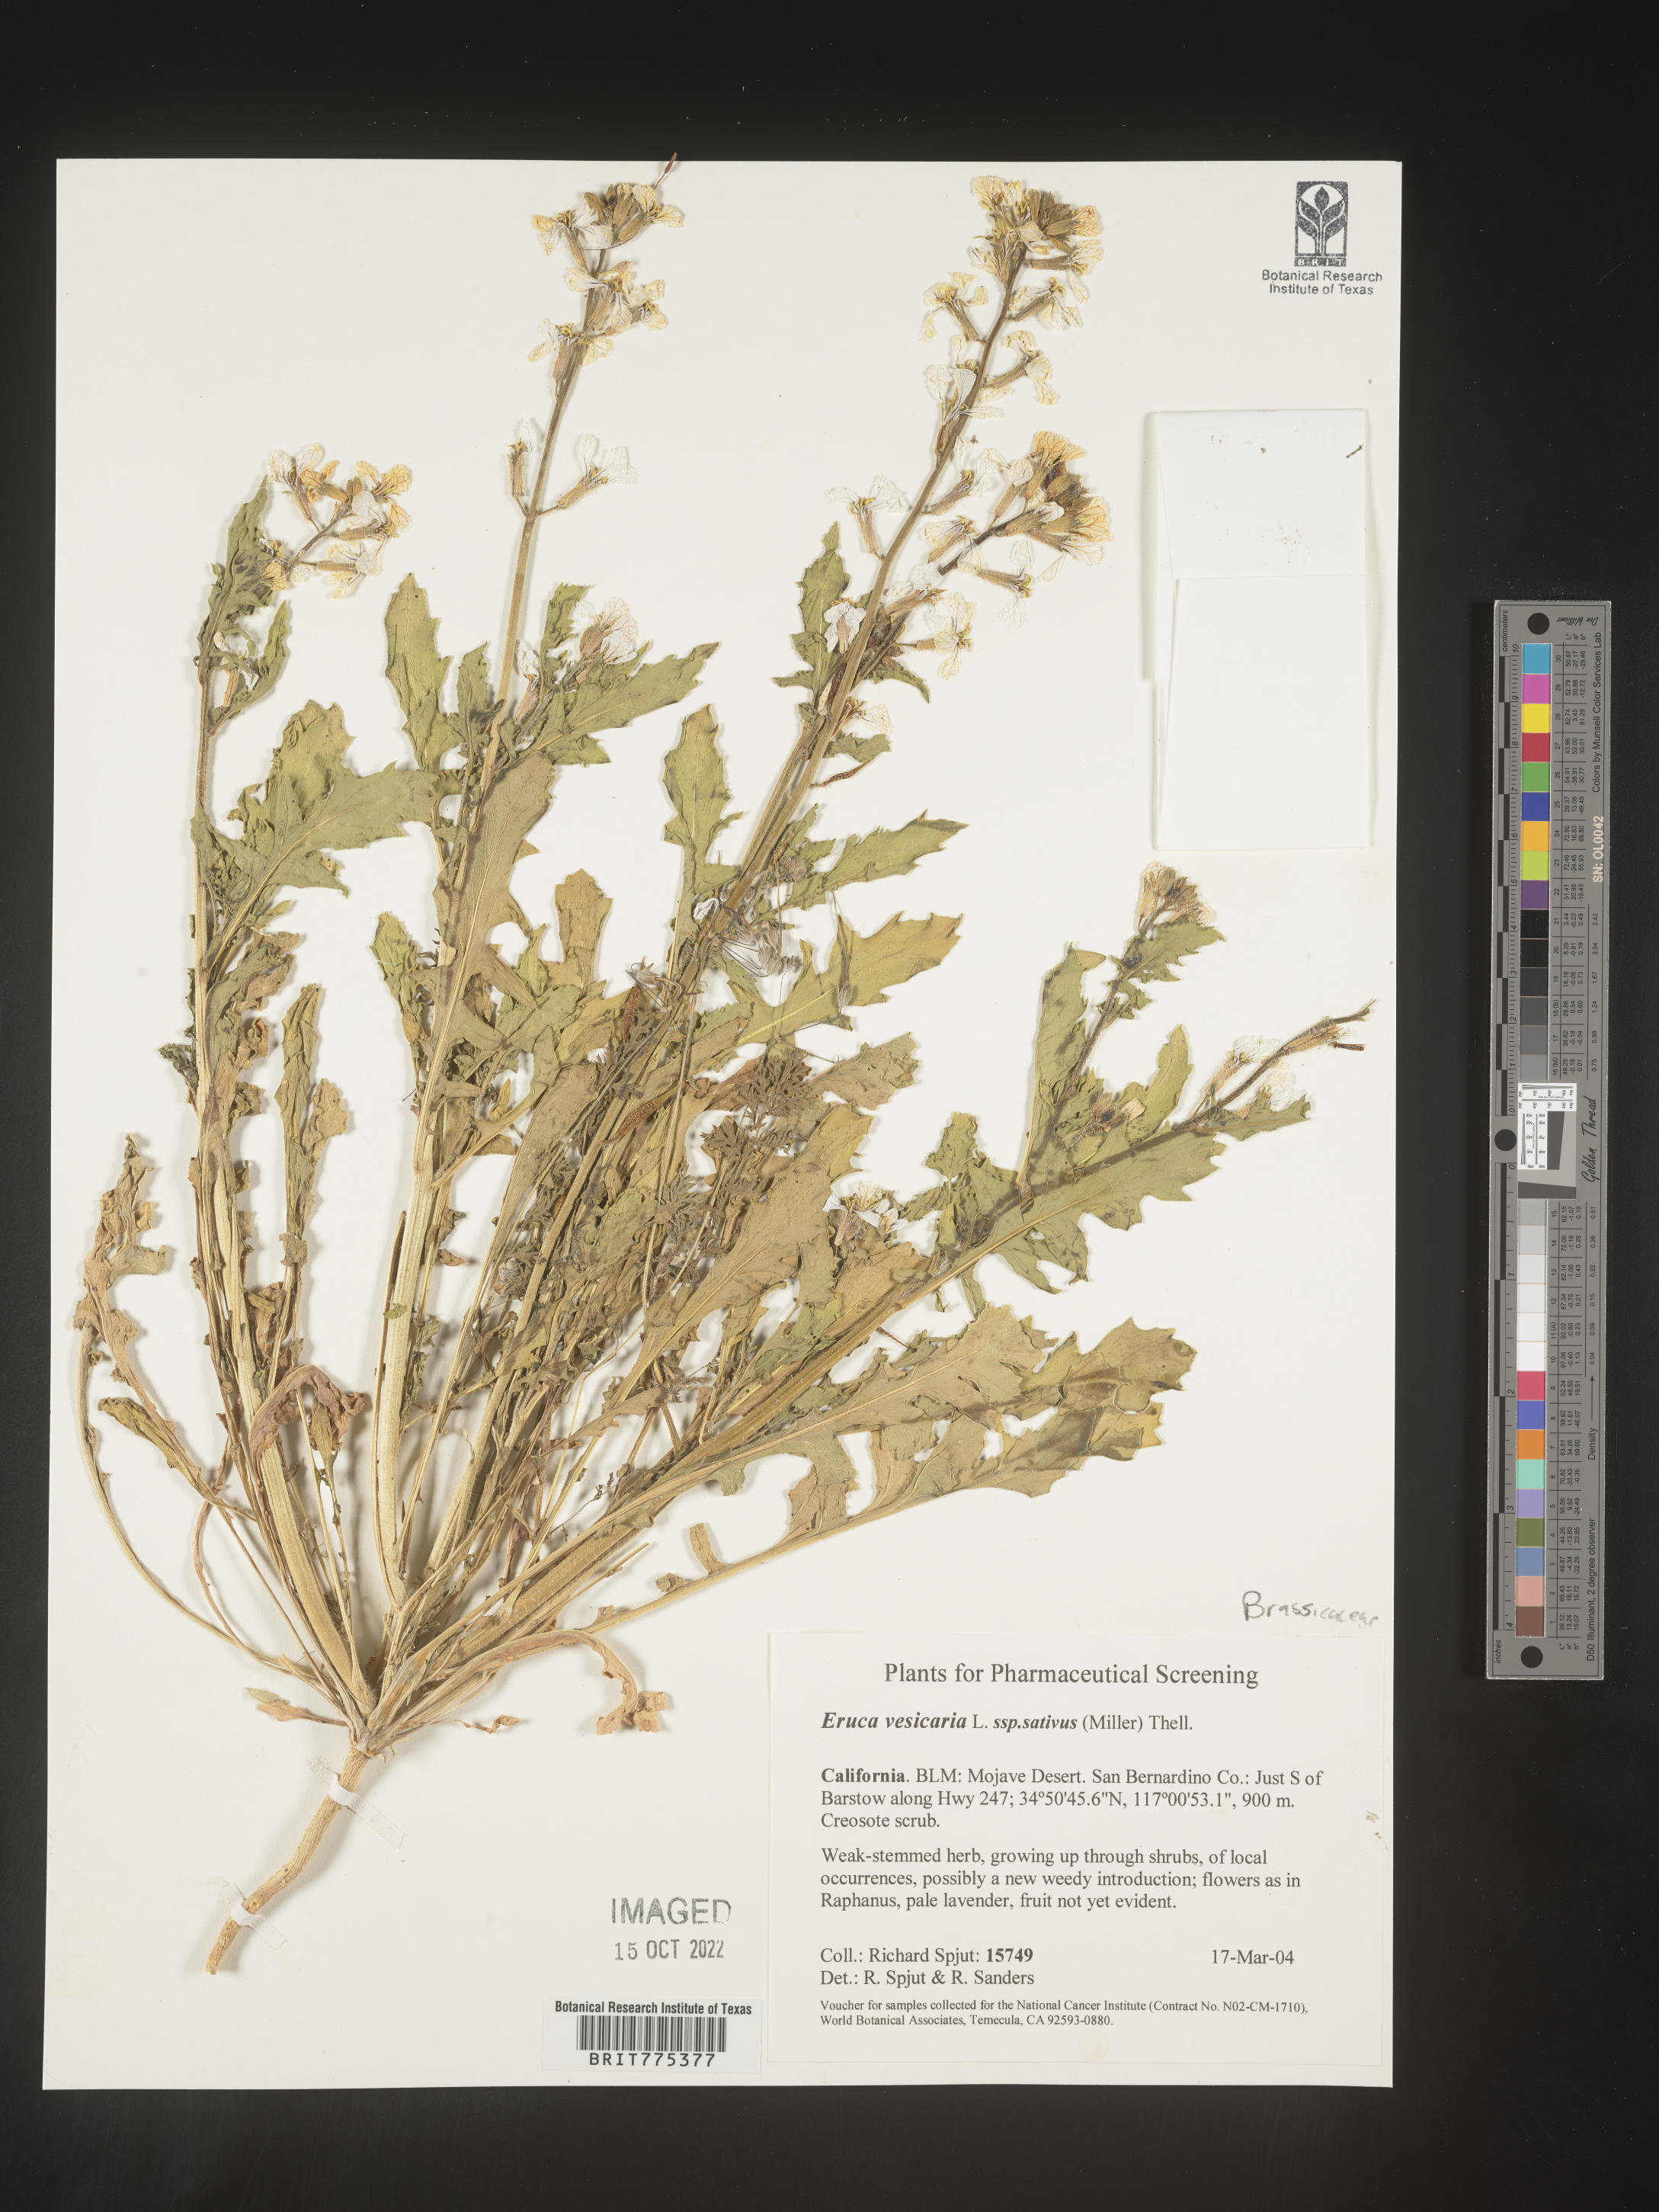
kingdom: Plantae
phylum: Tracheophyta
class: Magnoliopsida
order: Brassicales
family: Brassicaceae
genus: Eruca
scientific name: Eruca
